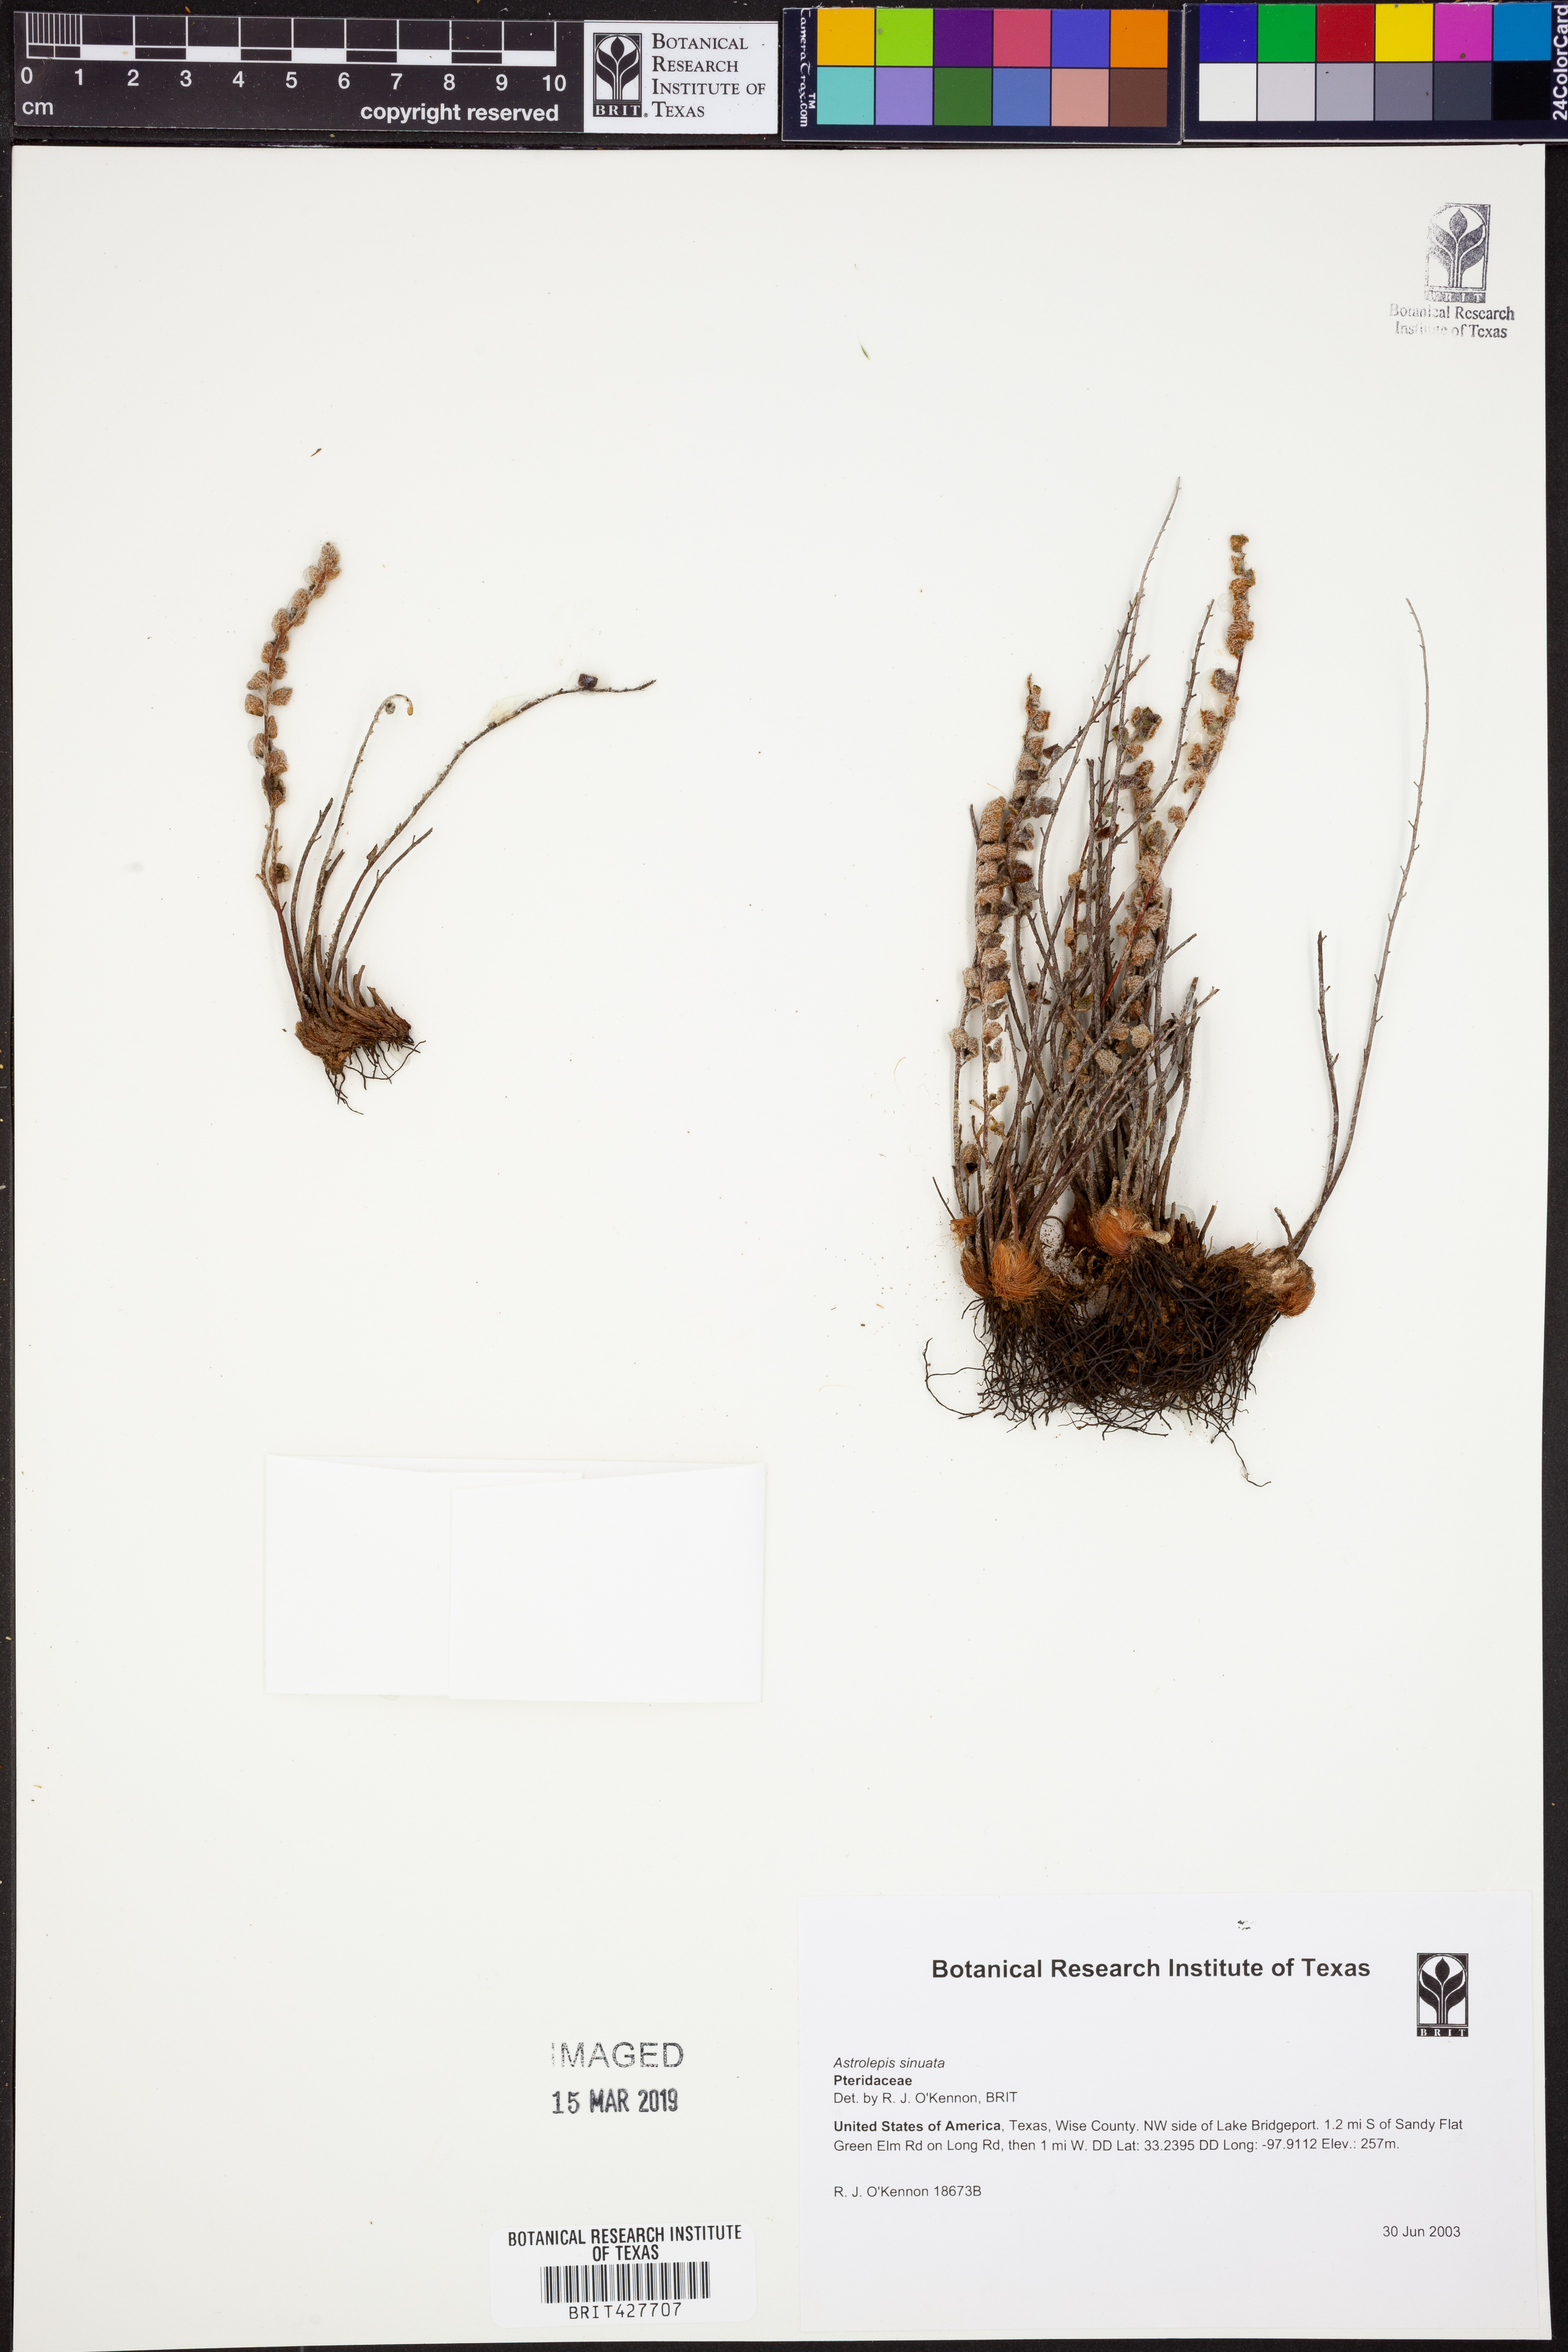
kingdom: Plantae
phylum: Tracheophyta
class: Polypodiopsida
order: Polypodiales
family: Pteridaceae
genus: Astrolepis
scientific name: Astrolepis sinuata
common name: Wavy scaly cloakfern
